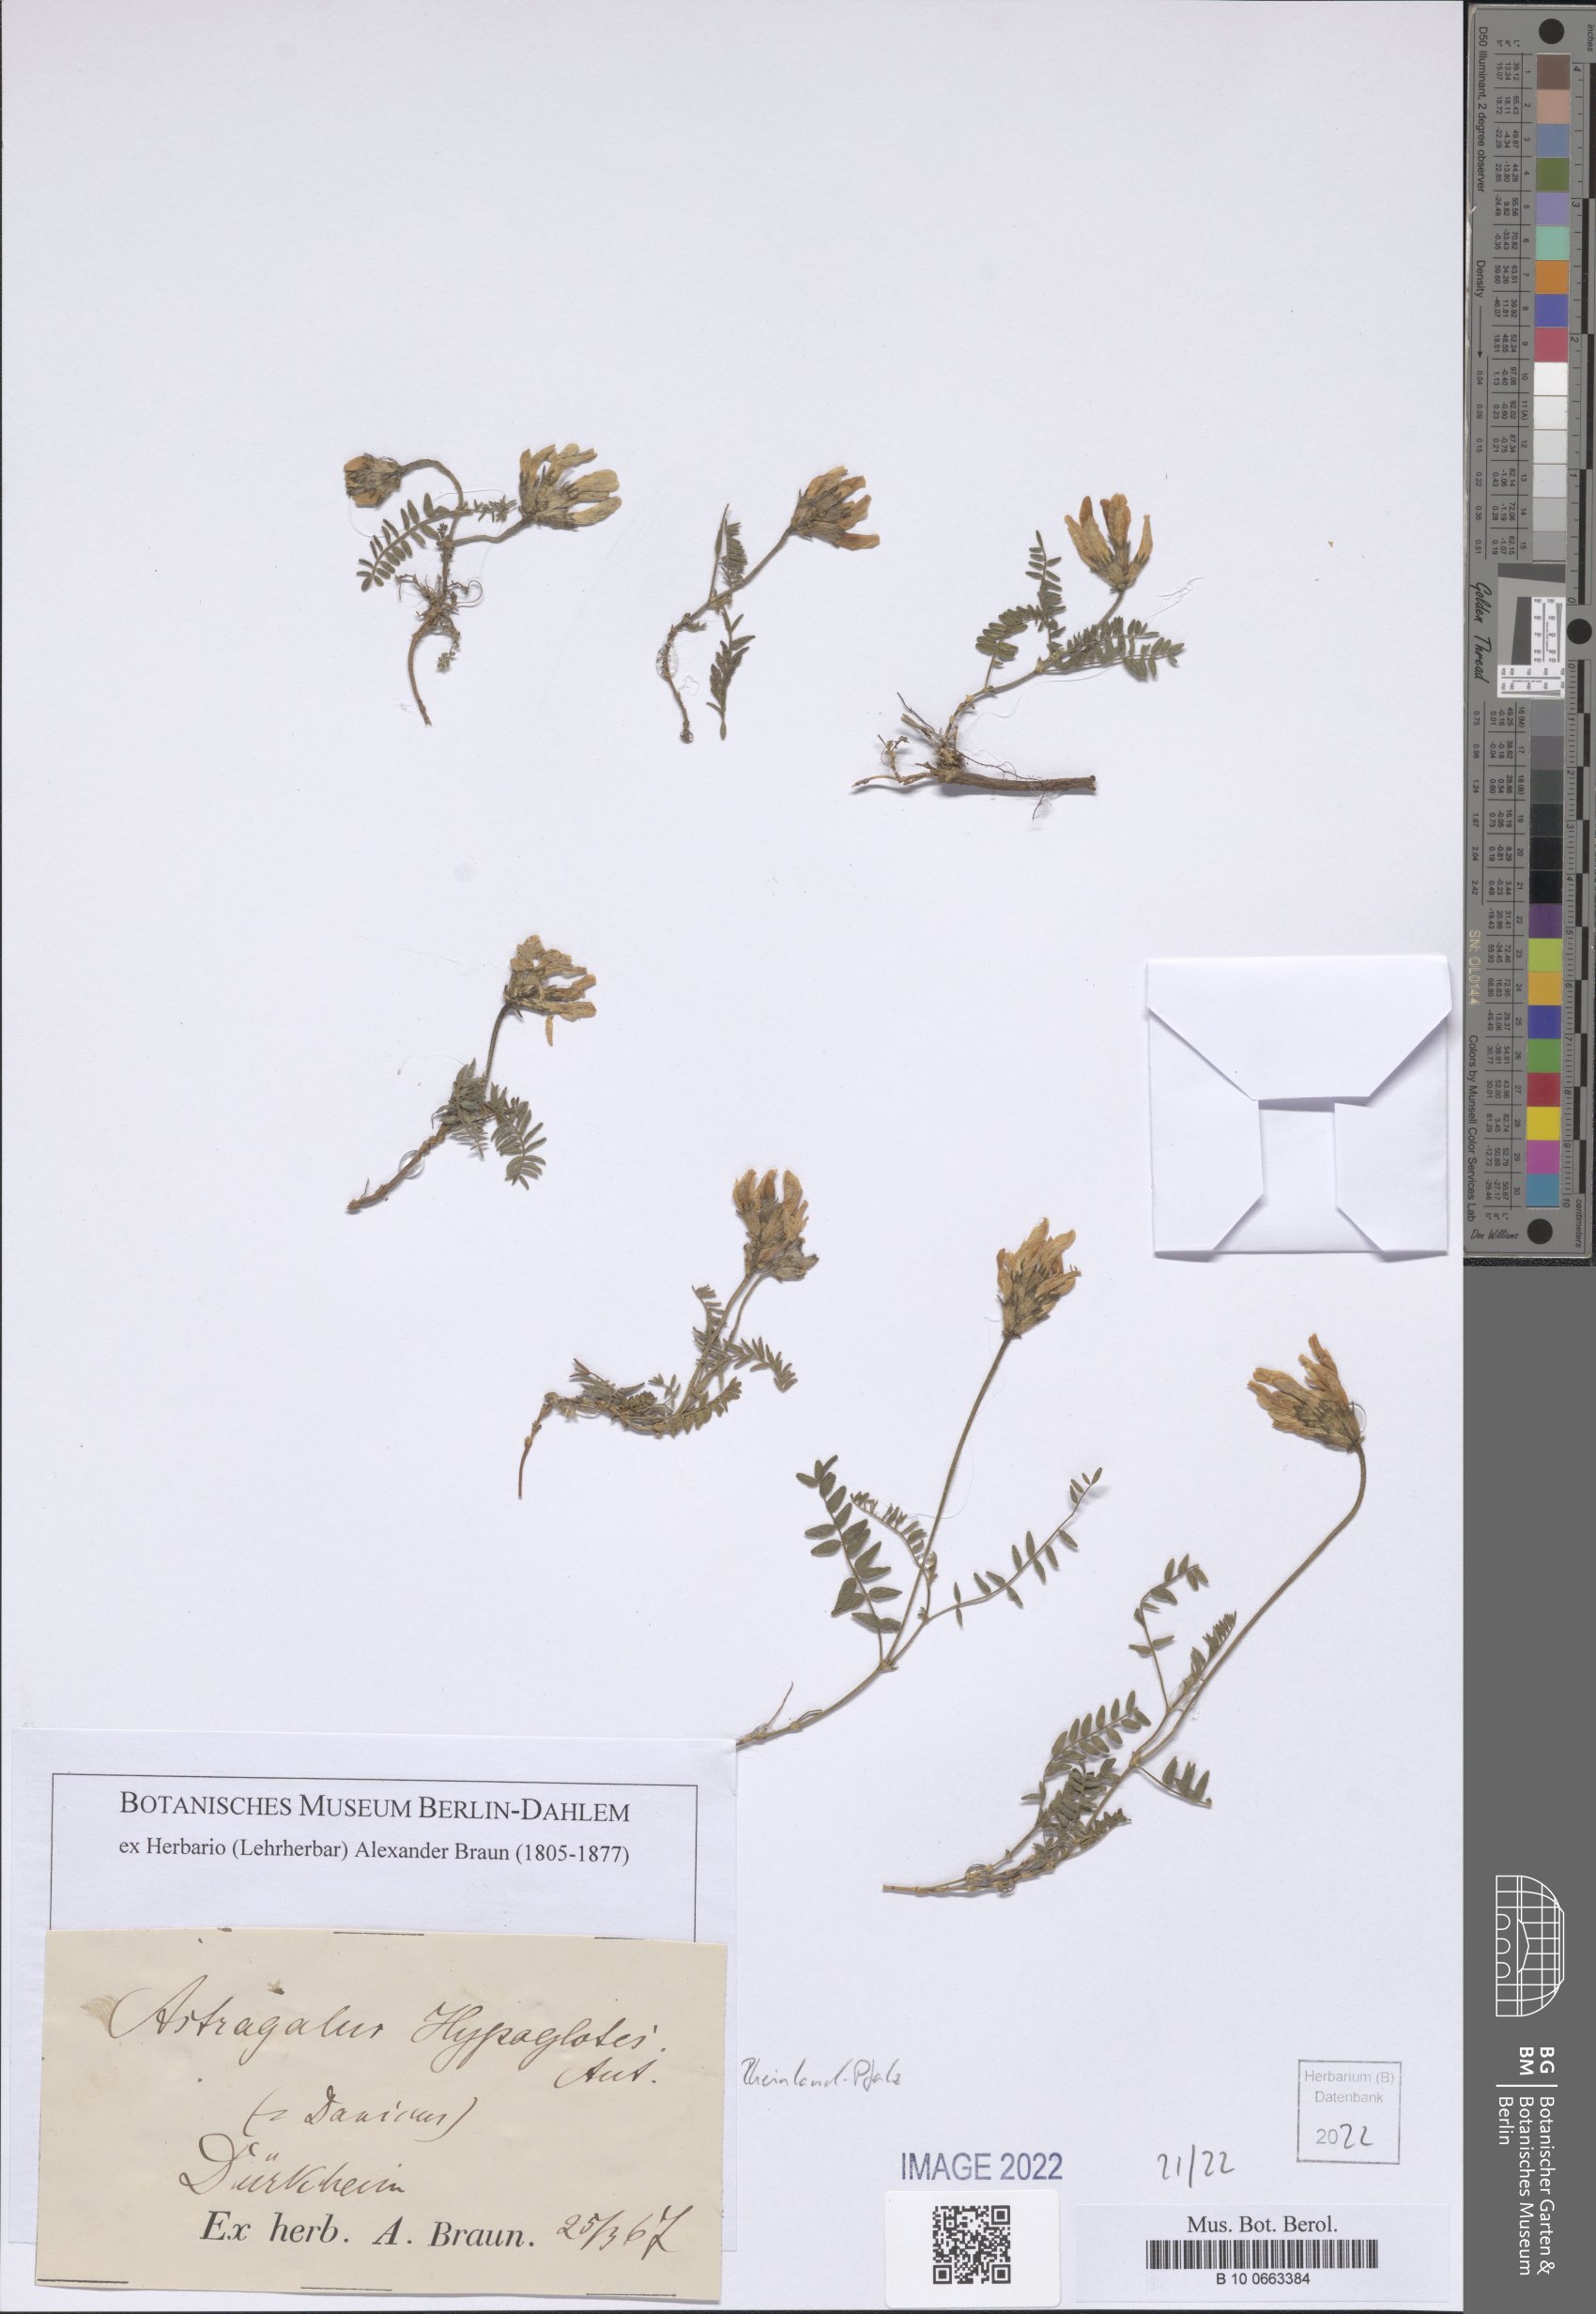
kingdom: Plantae
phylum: Tracheophyta
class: Magnoliopsida
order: Fabales
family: Fabaceae
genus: Astragalus
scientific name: Astragalus hypoglottis
